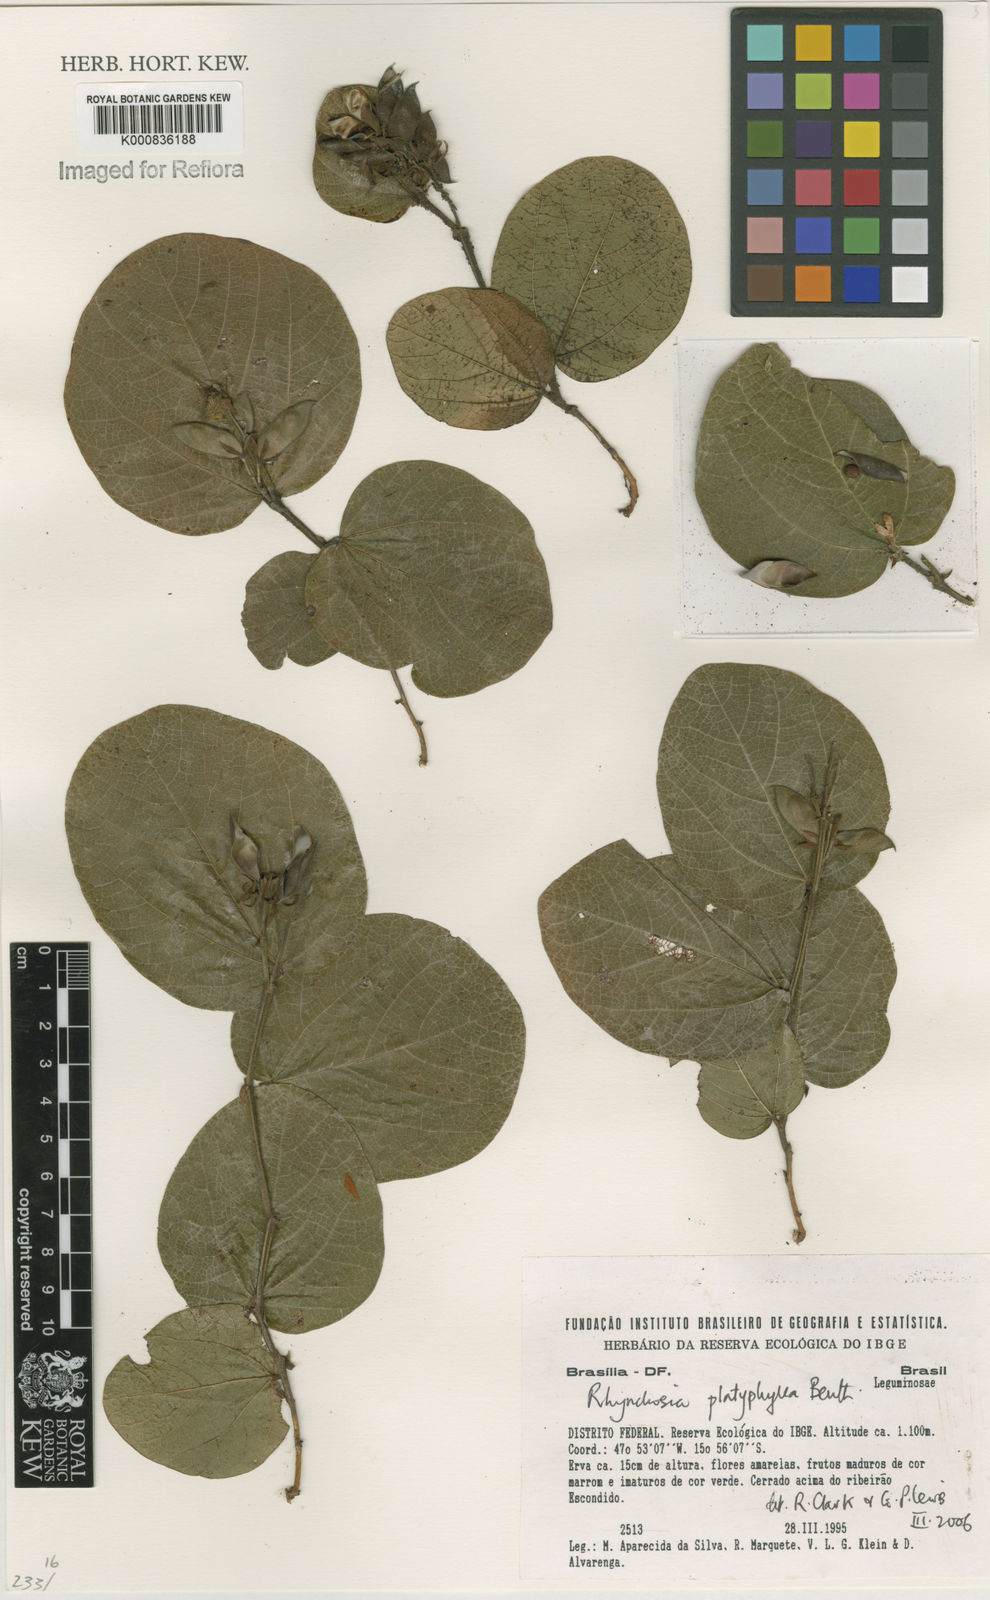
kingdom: Plantae
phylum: Tracheophyta
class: Magnoliopsida
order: Fabales
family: Fabaceae
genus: Rhynchosia
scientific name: Rhynchosia platyphylla
